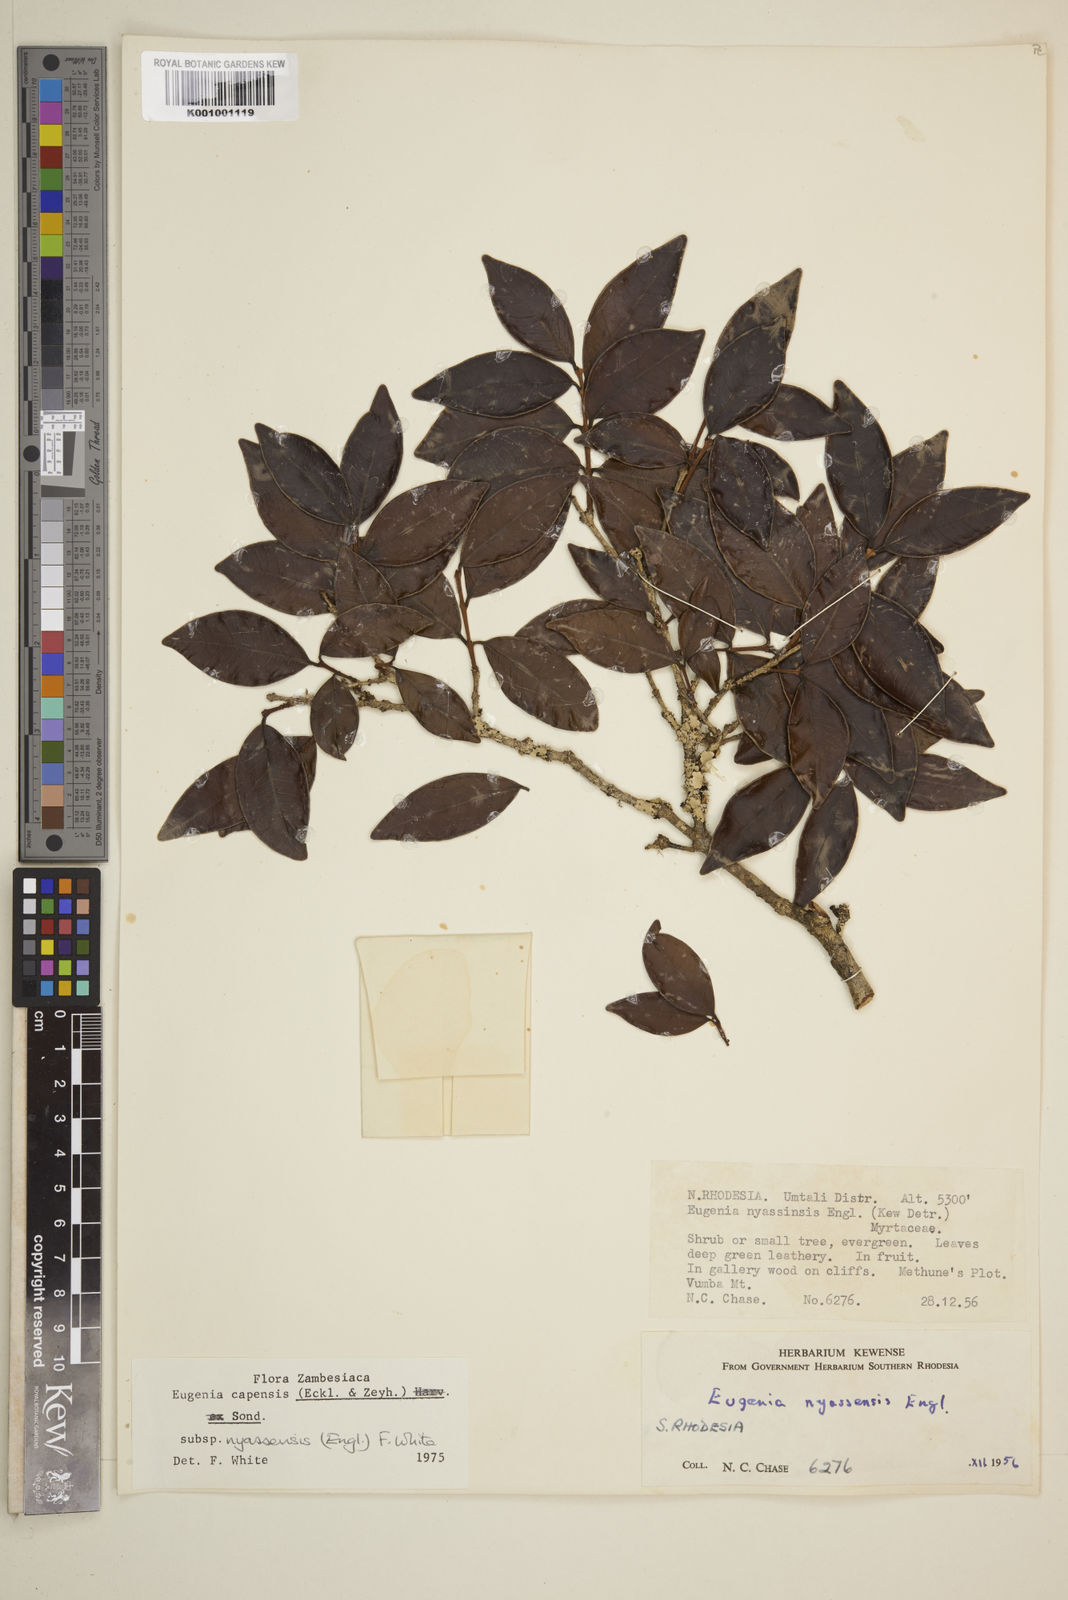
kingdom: Plantae
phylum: Tracheophyta
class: Magnoliopsida
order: Myrtales
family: Myrtaceae
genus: Eugenia
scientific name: Eugenia capensis
